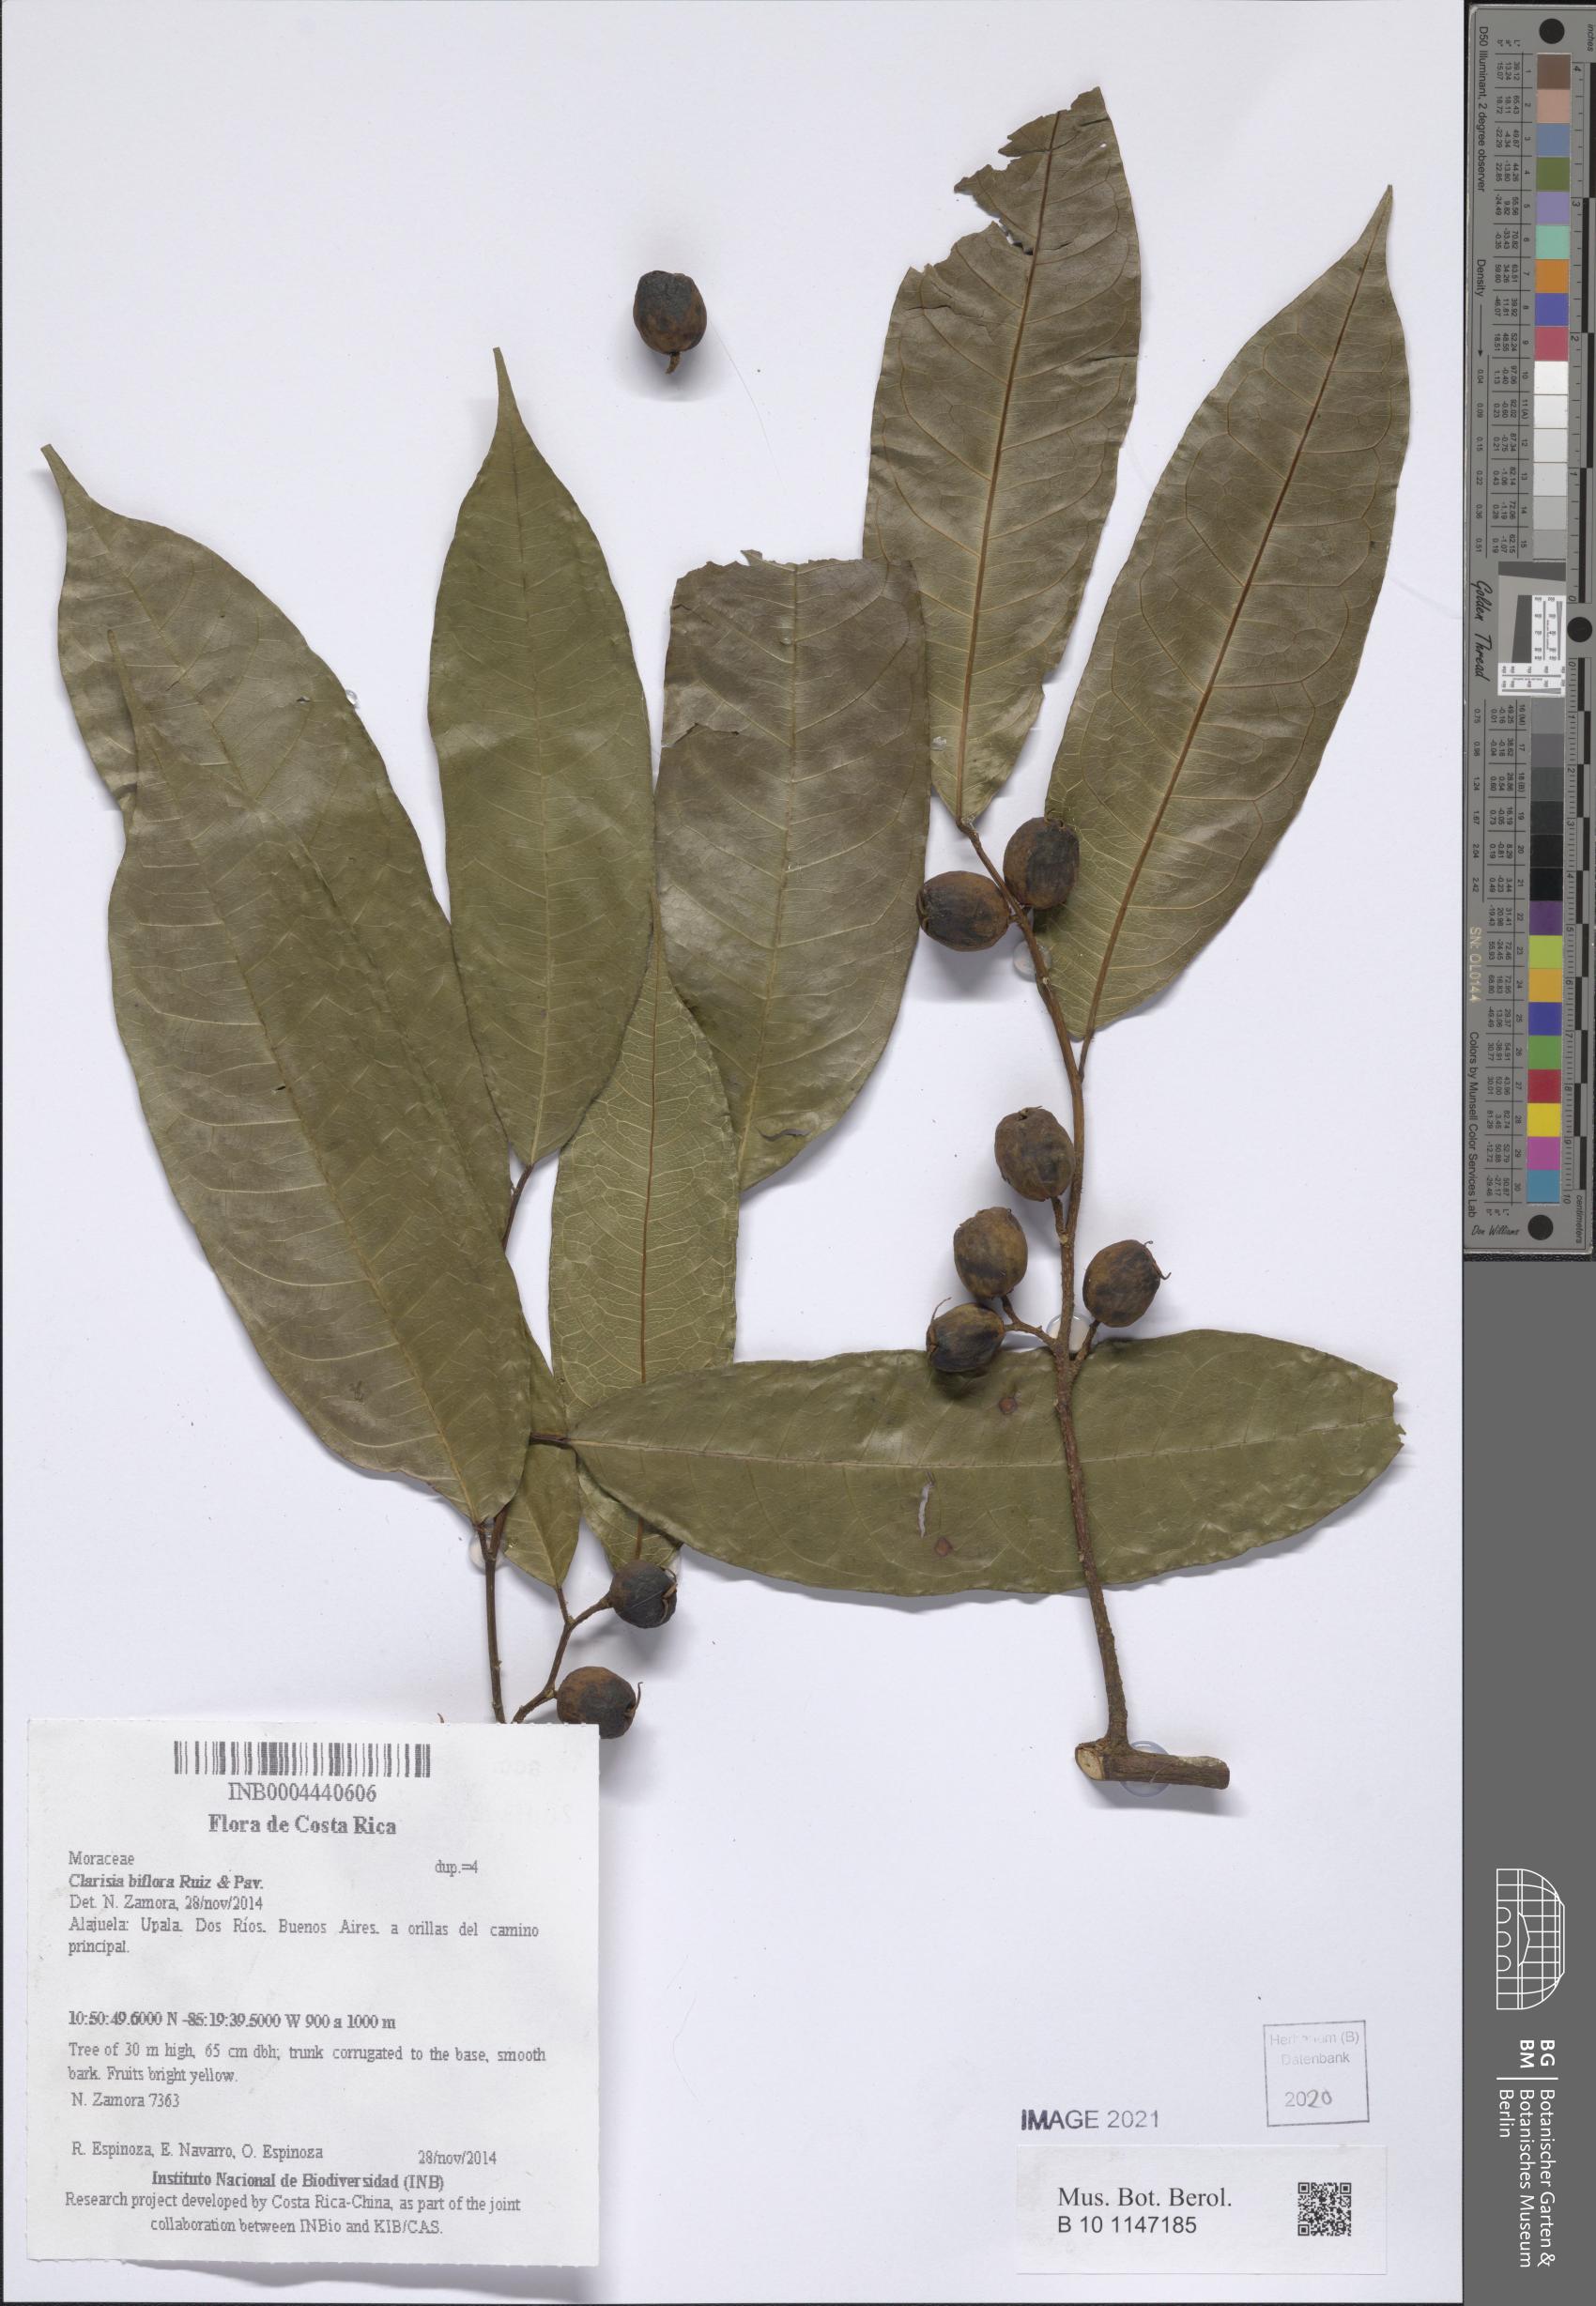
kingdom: Plantae
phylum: Tracheophyta
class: Magnoliopsida
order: Rosales
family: Moraceae
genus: Clarisia
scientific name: Clarisia biflora
